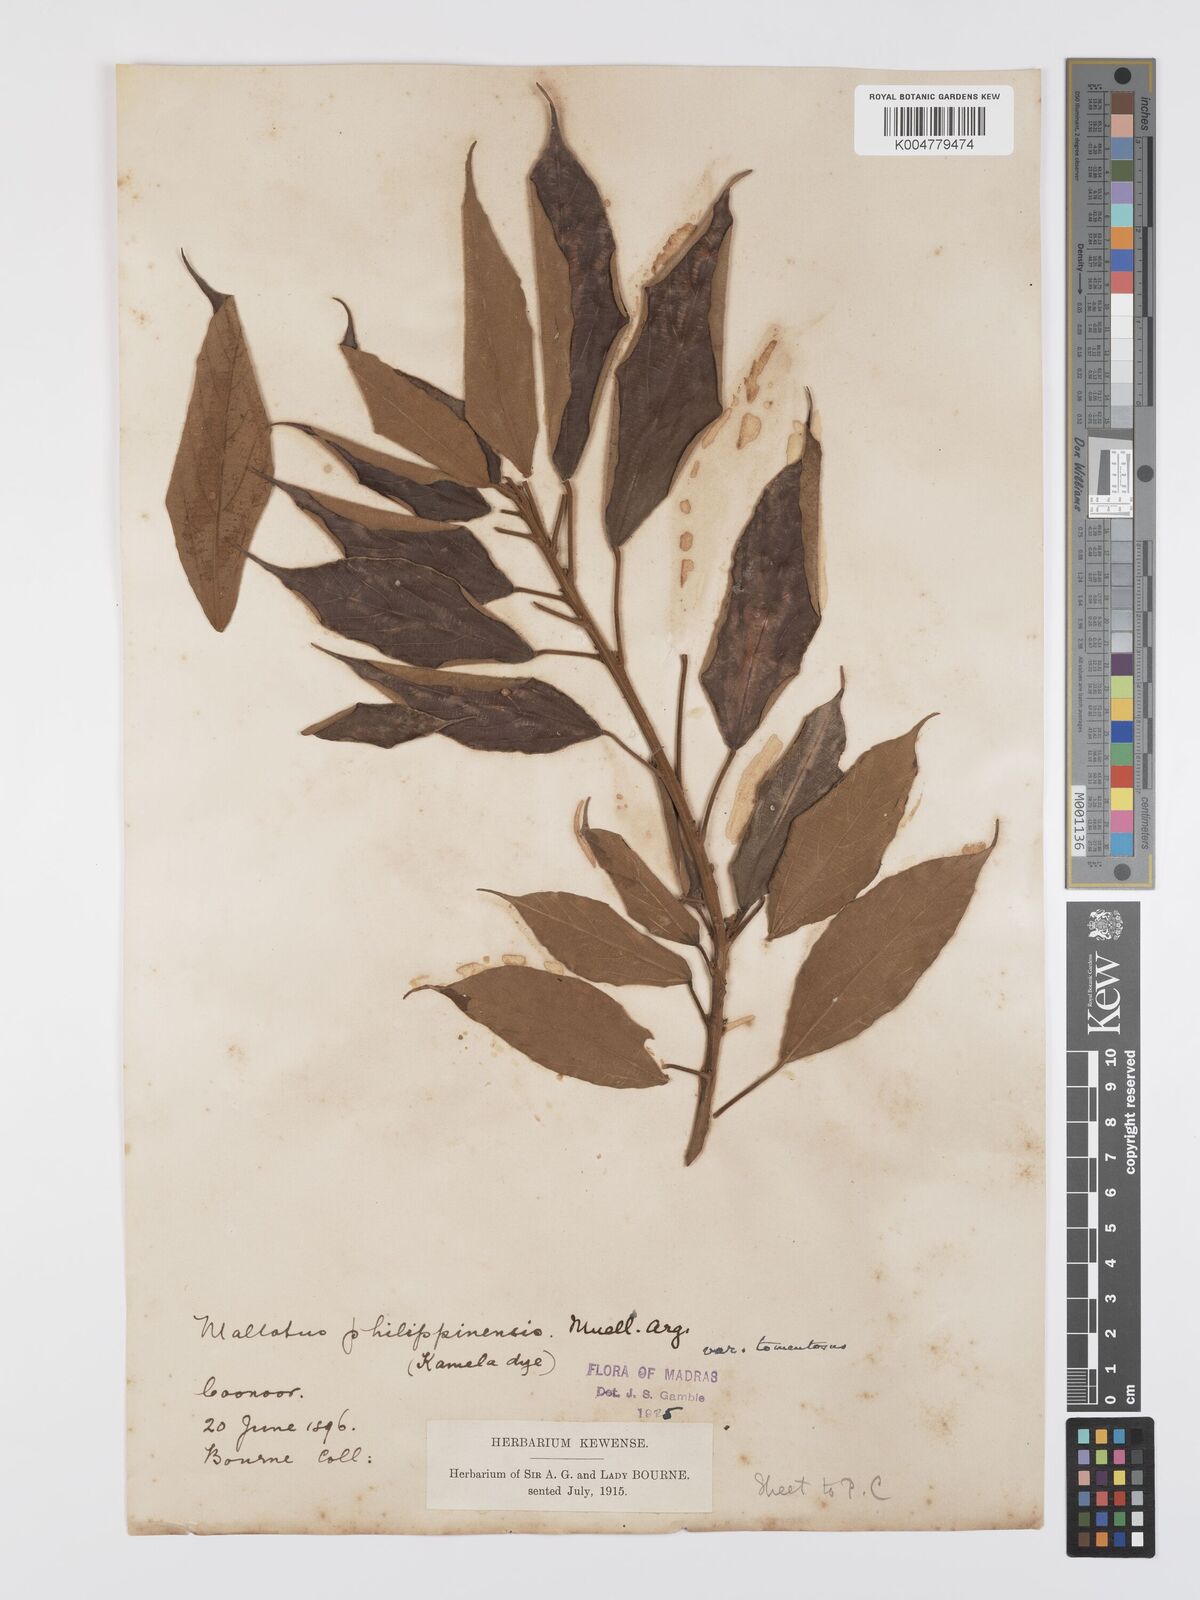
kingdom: Plantae
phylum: Tracheophyta
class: Magnoliopsida
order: Malpighiales
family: Euphorbiaceae
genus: Mallotus
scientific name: Mallotus philippensis
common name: Kamala tree
